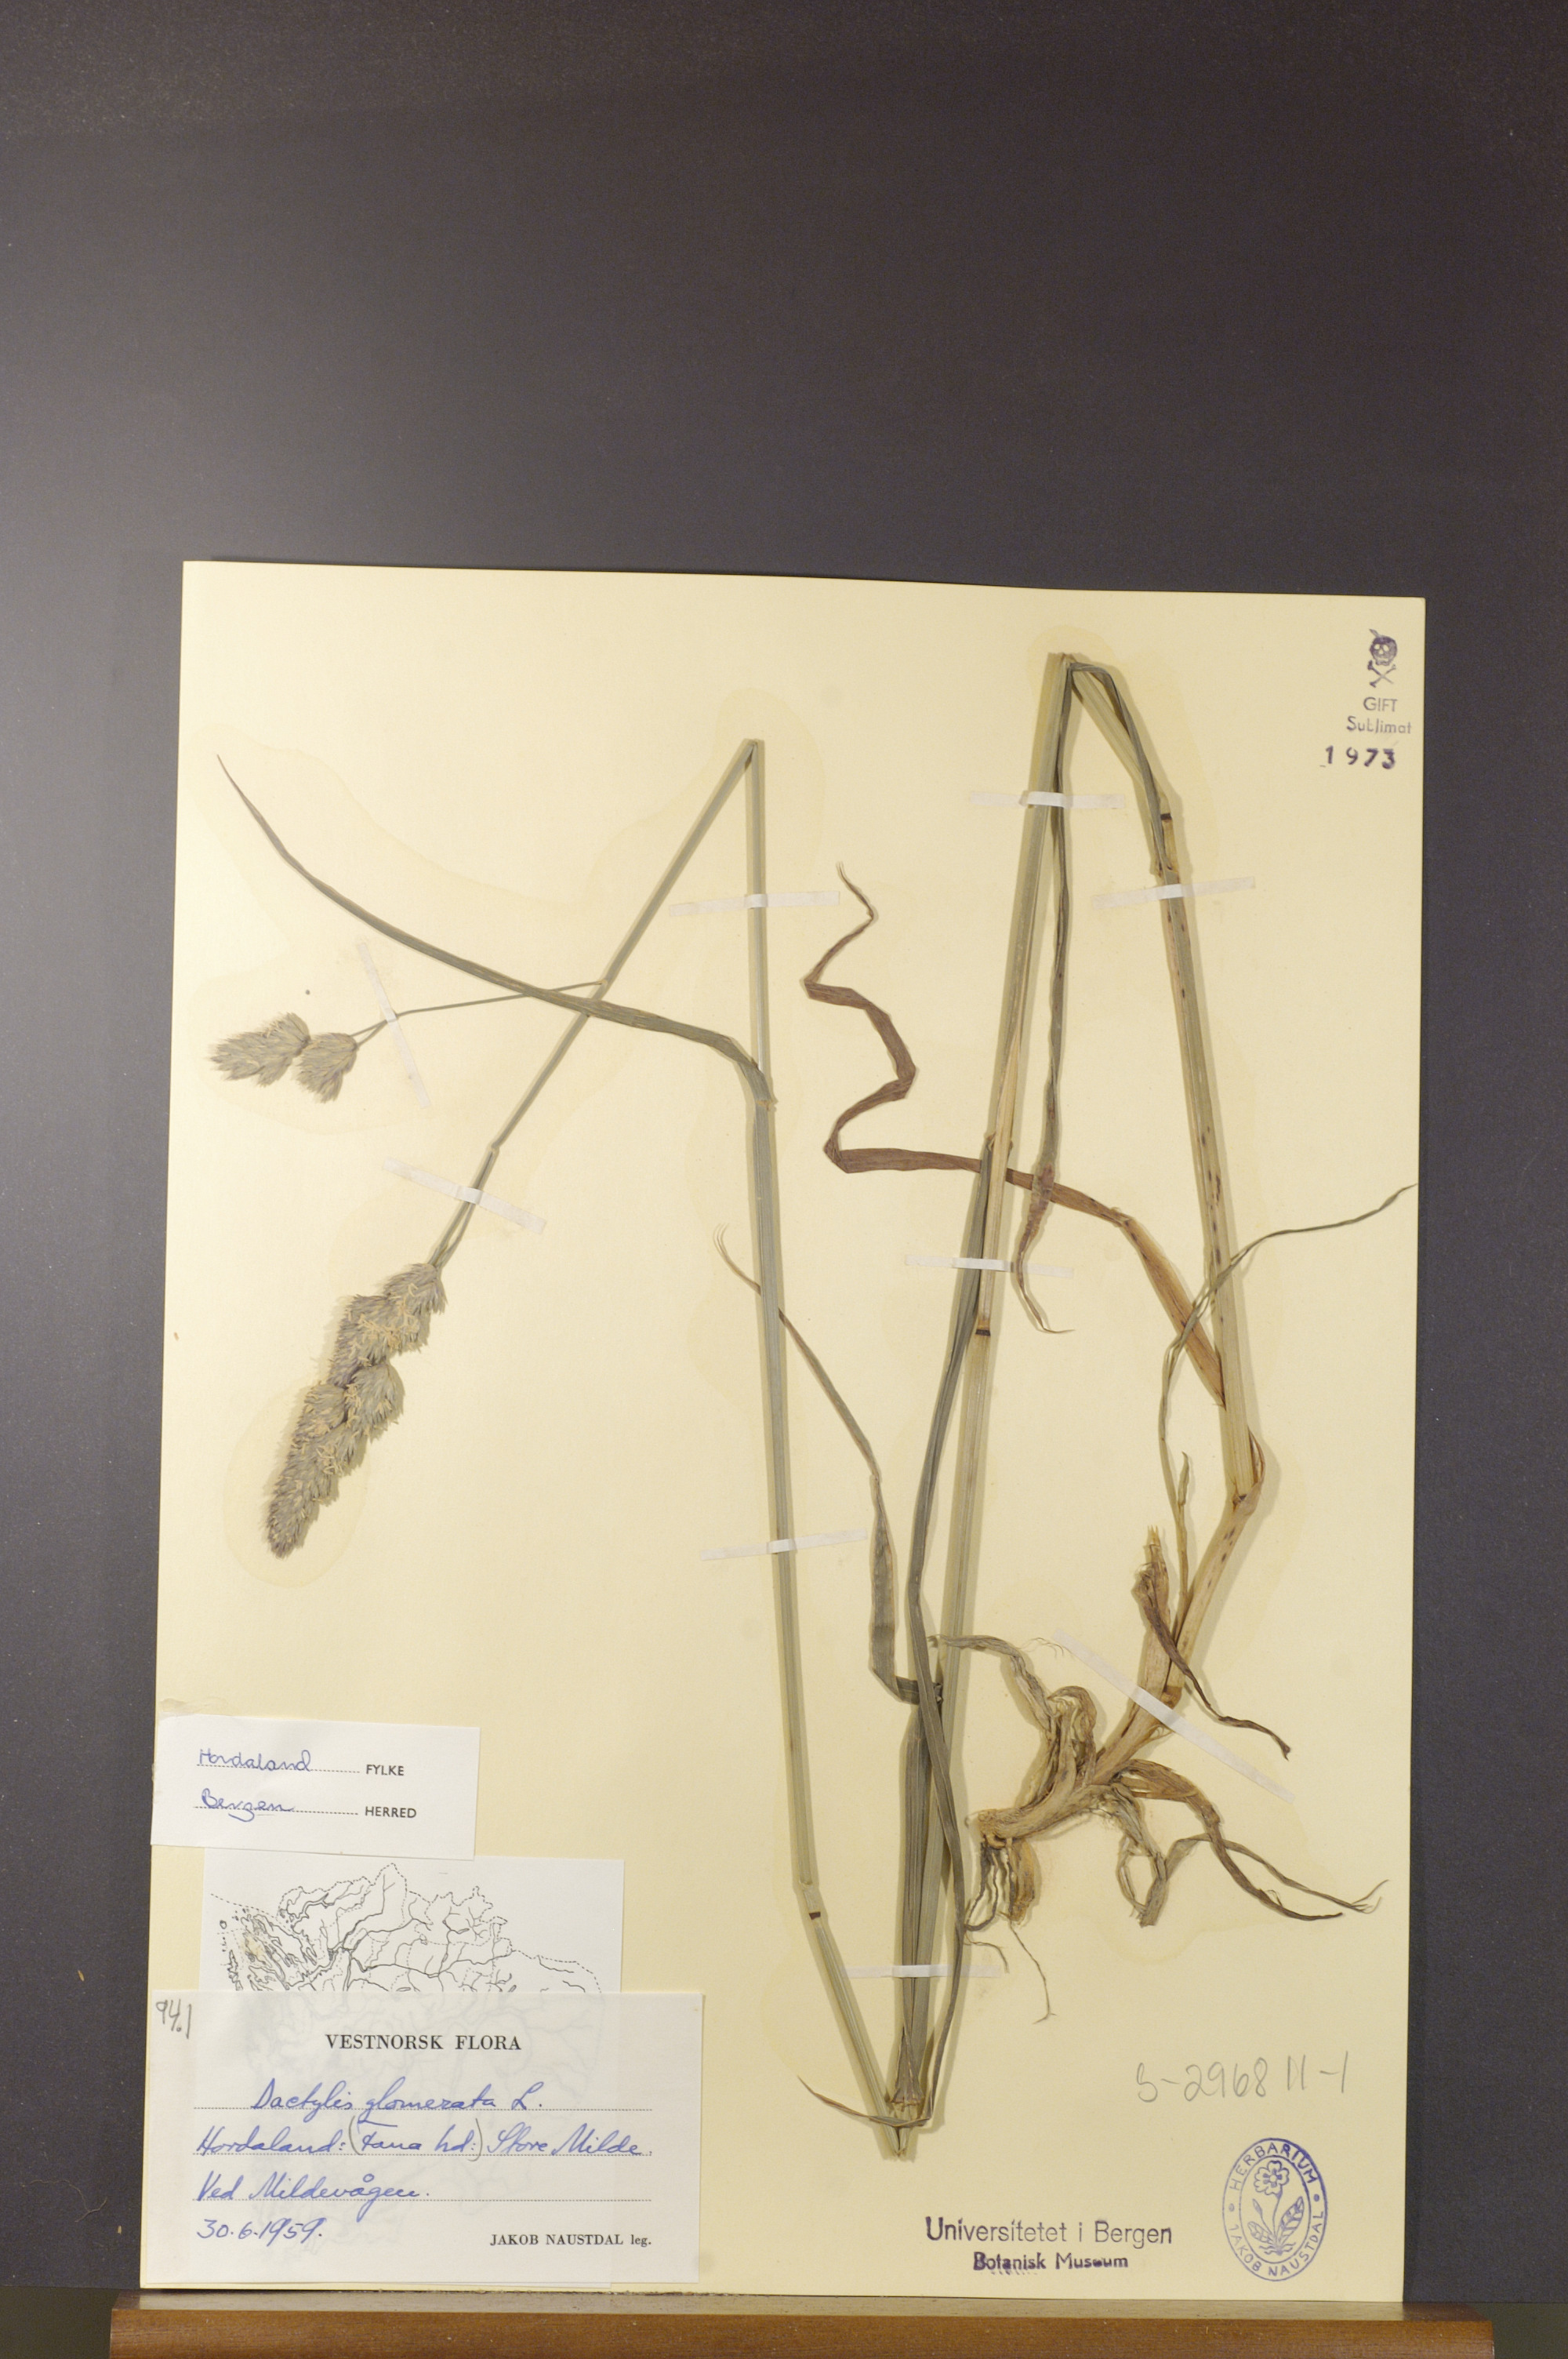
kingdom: Plantae
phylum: Tracheophyta
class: Liliopsida
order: Poales
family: Poaceae
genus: Dactylis
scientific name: Dactylis glomerata
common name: Orchardgrass
